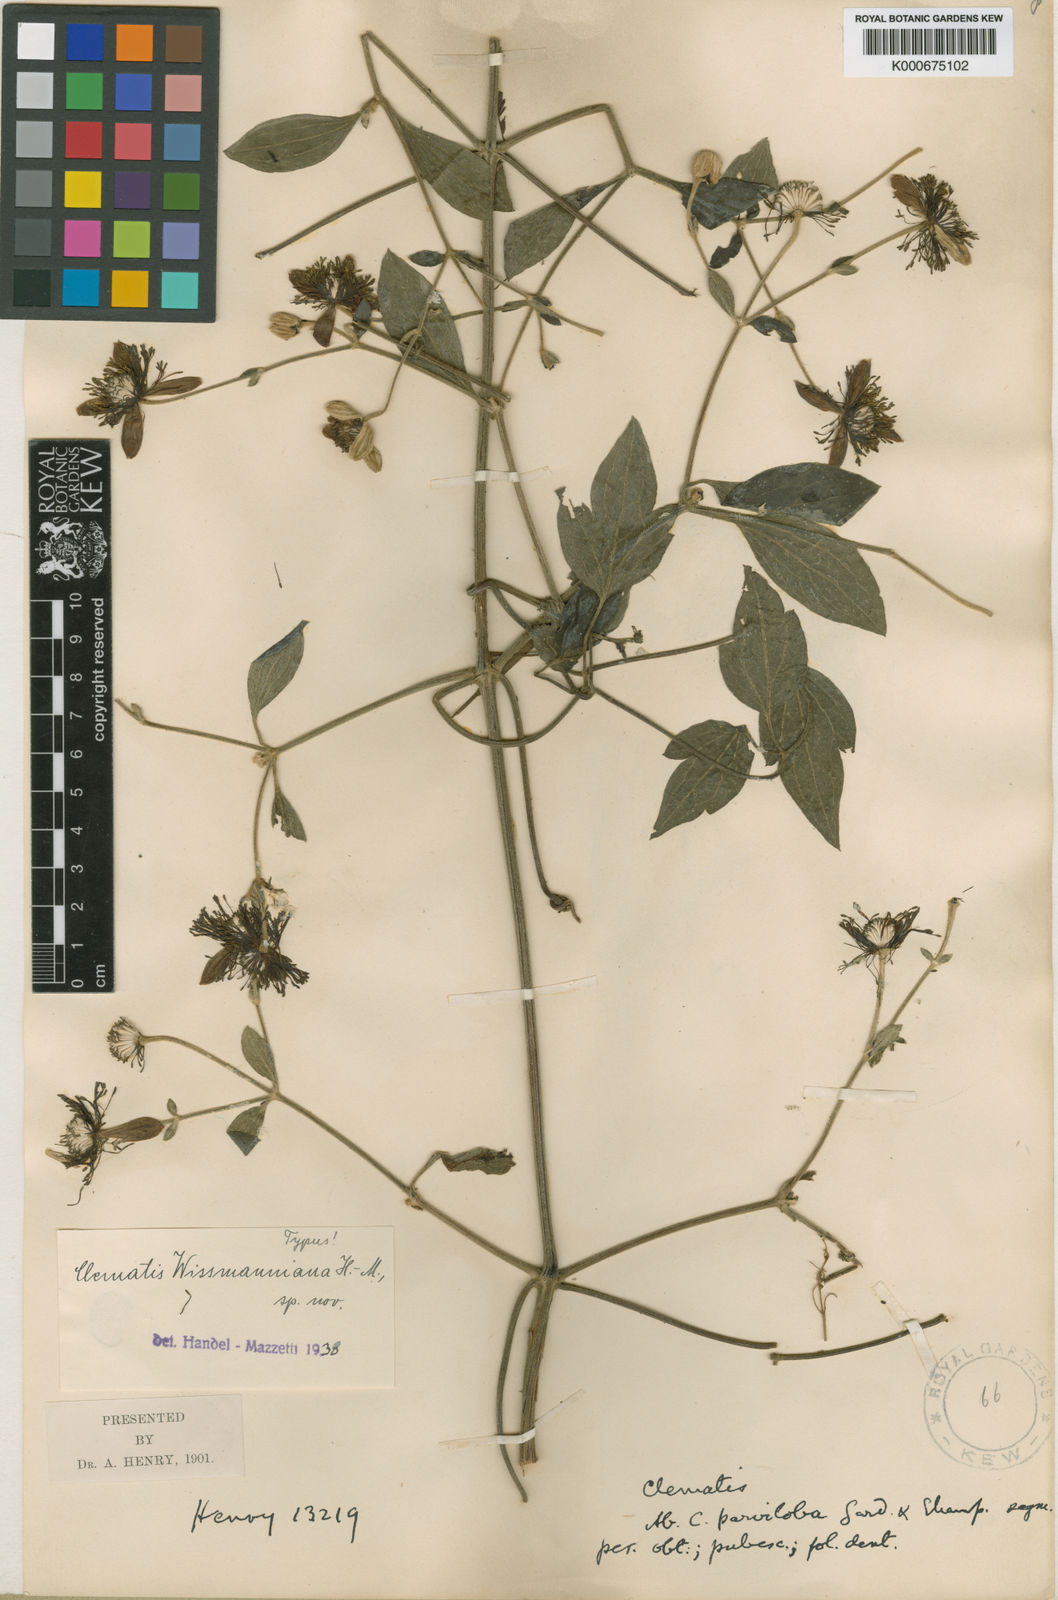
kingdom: Plantae
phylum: Tracheophyta
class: Magnoliopsida
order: Ranunculales
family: Ranunculaceae
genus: Clematis
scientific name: Clematis wissmanniana
